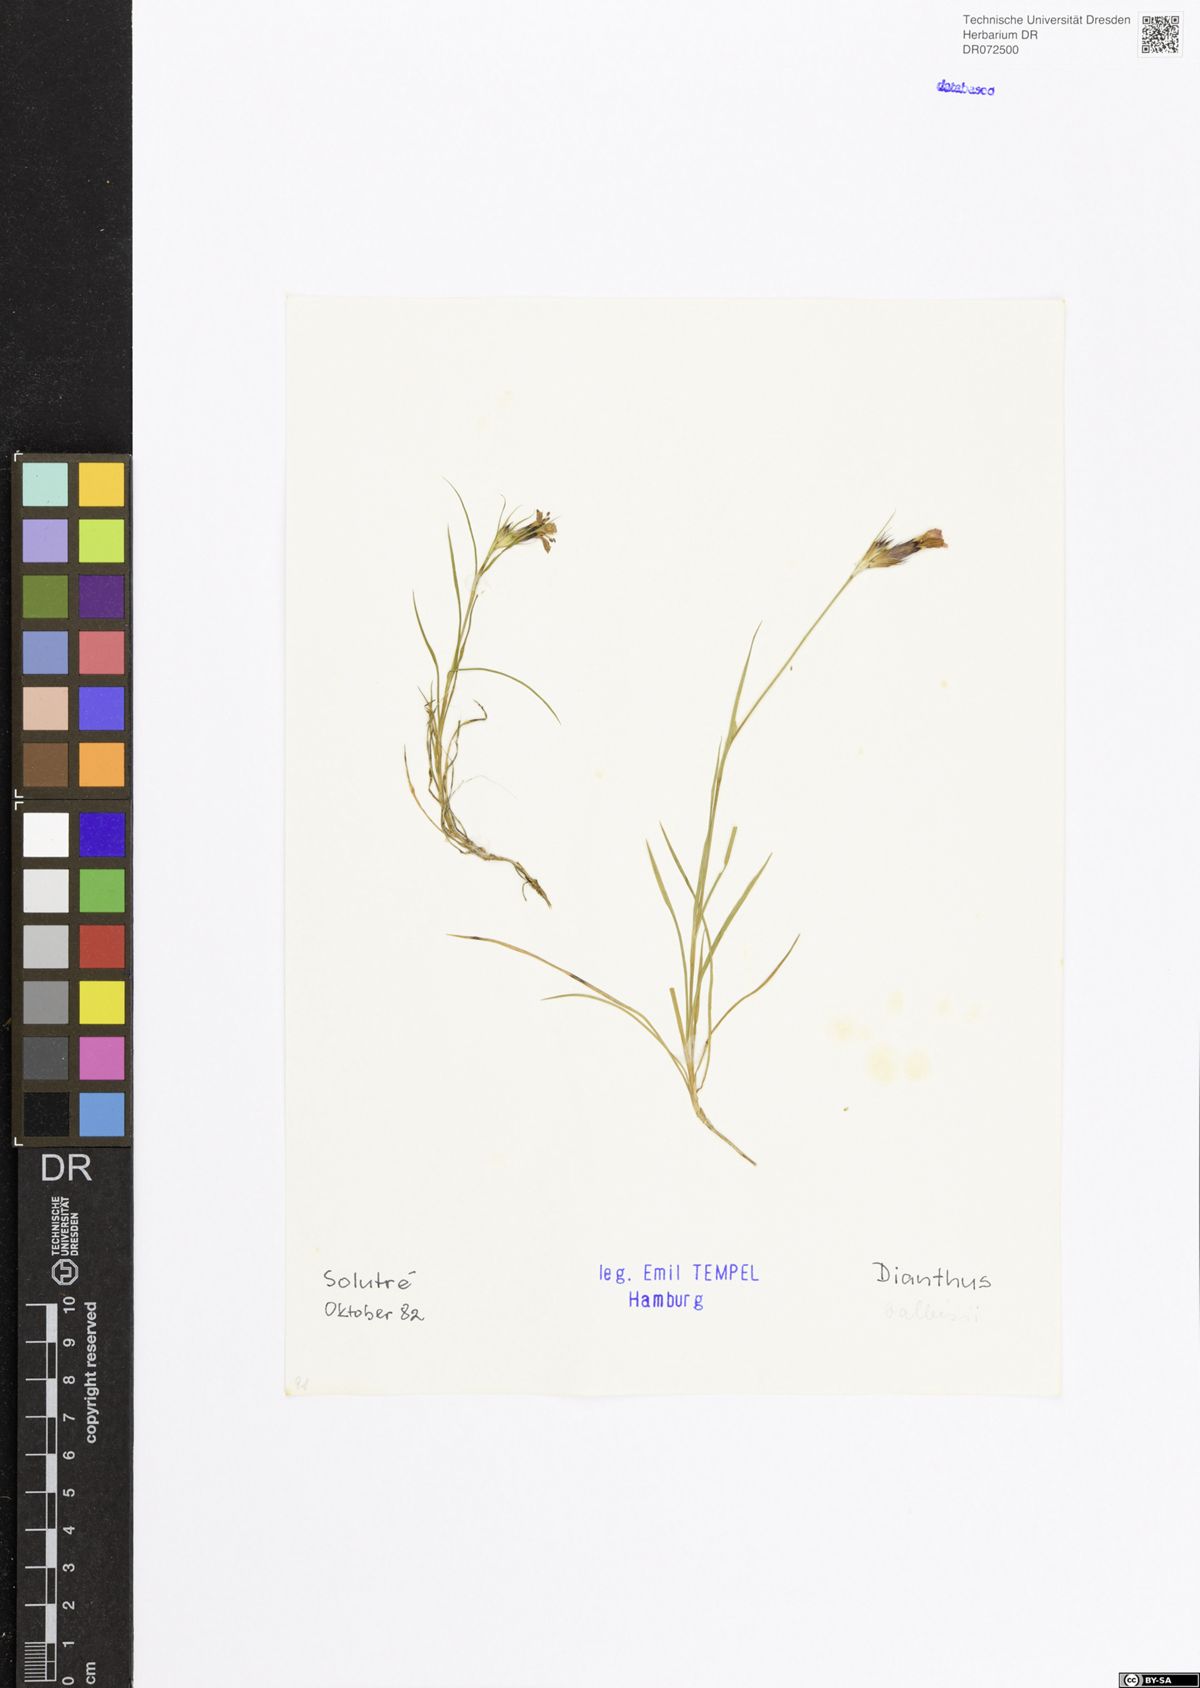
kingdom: Plantae
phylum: Tracheophyta
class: Magnoliopsida
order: Caryophyllales
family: Caryophyllaceae
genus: Dianthus
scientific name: Dianthus balbisii
